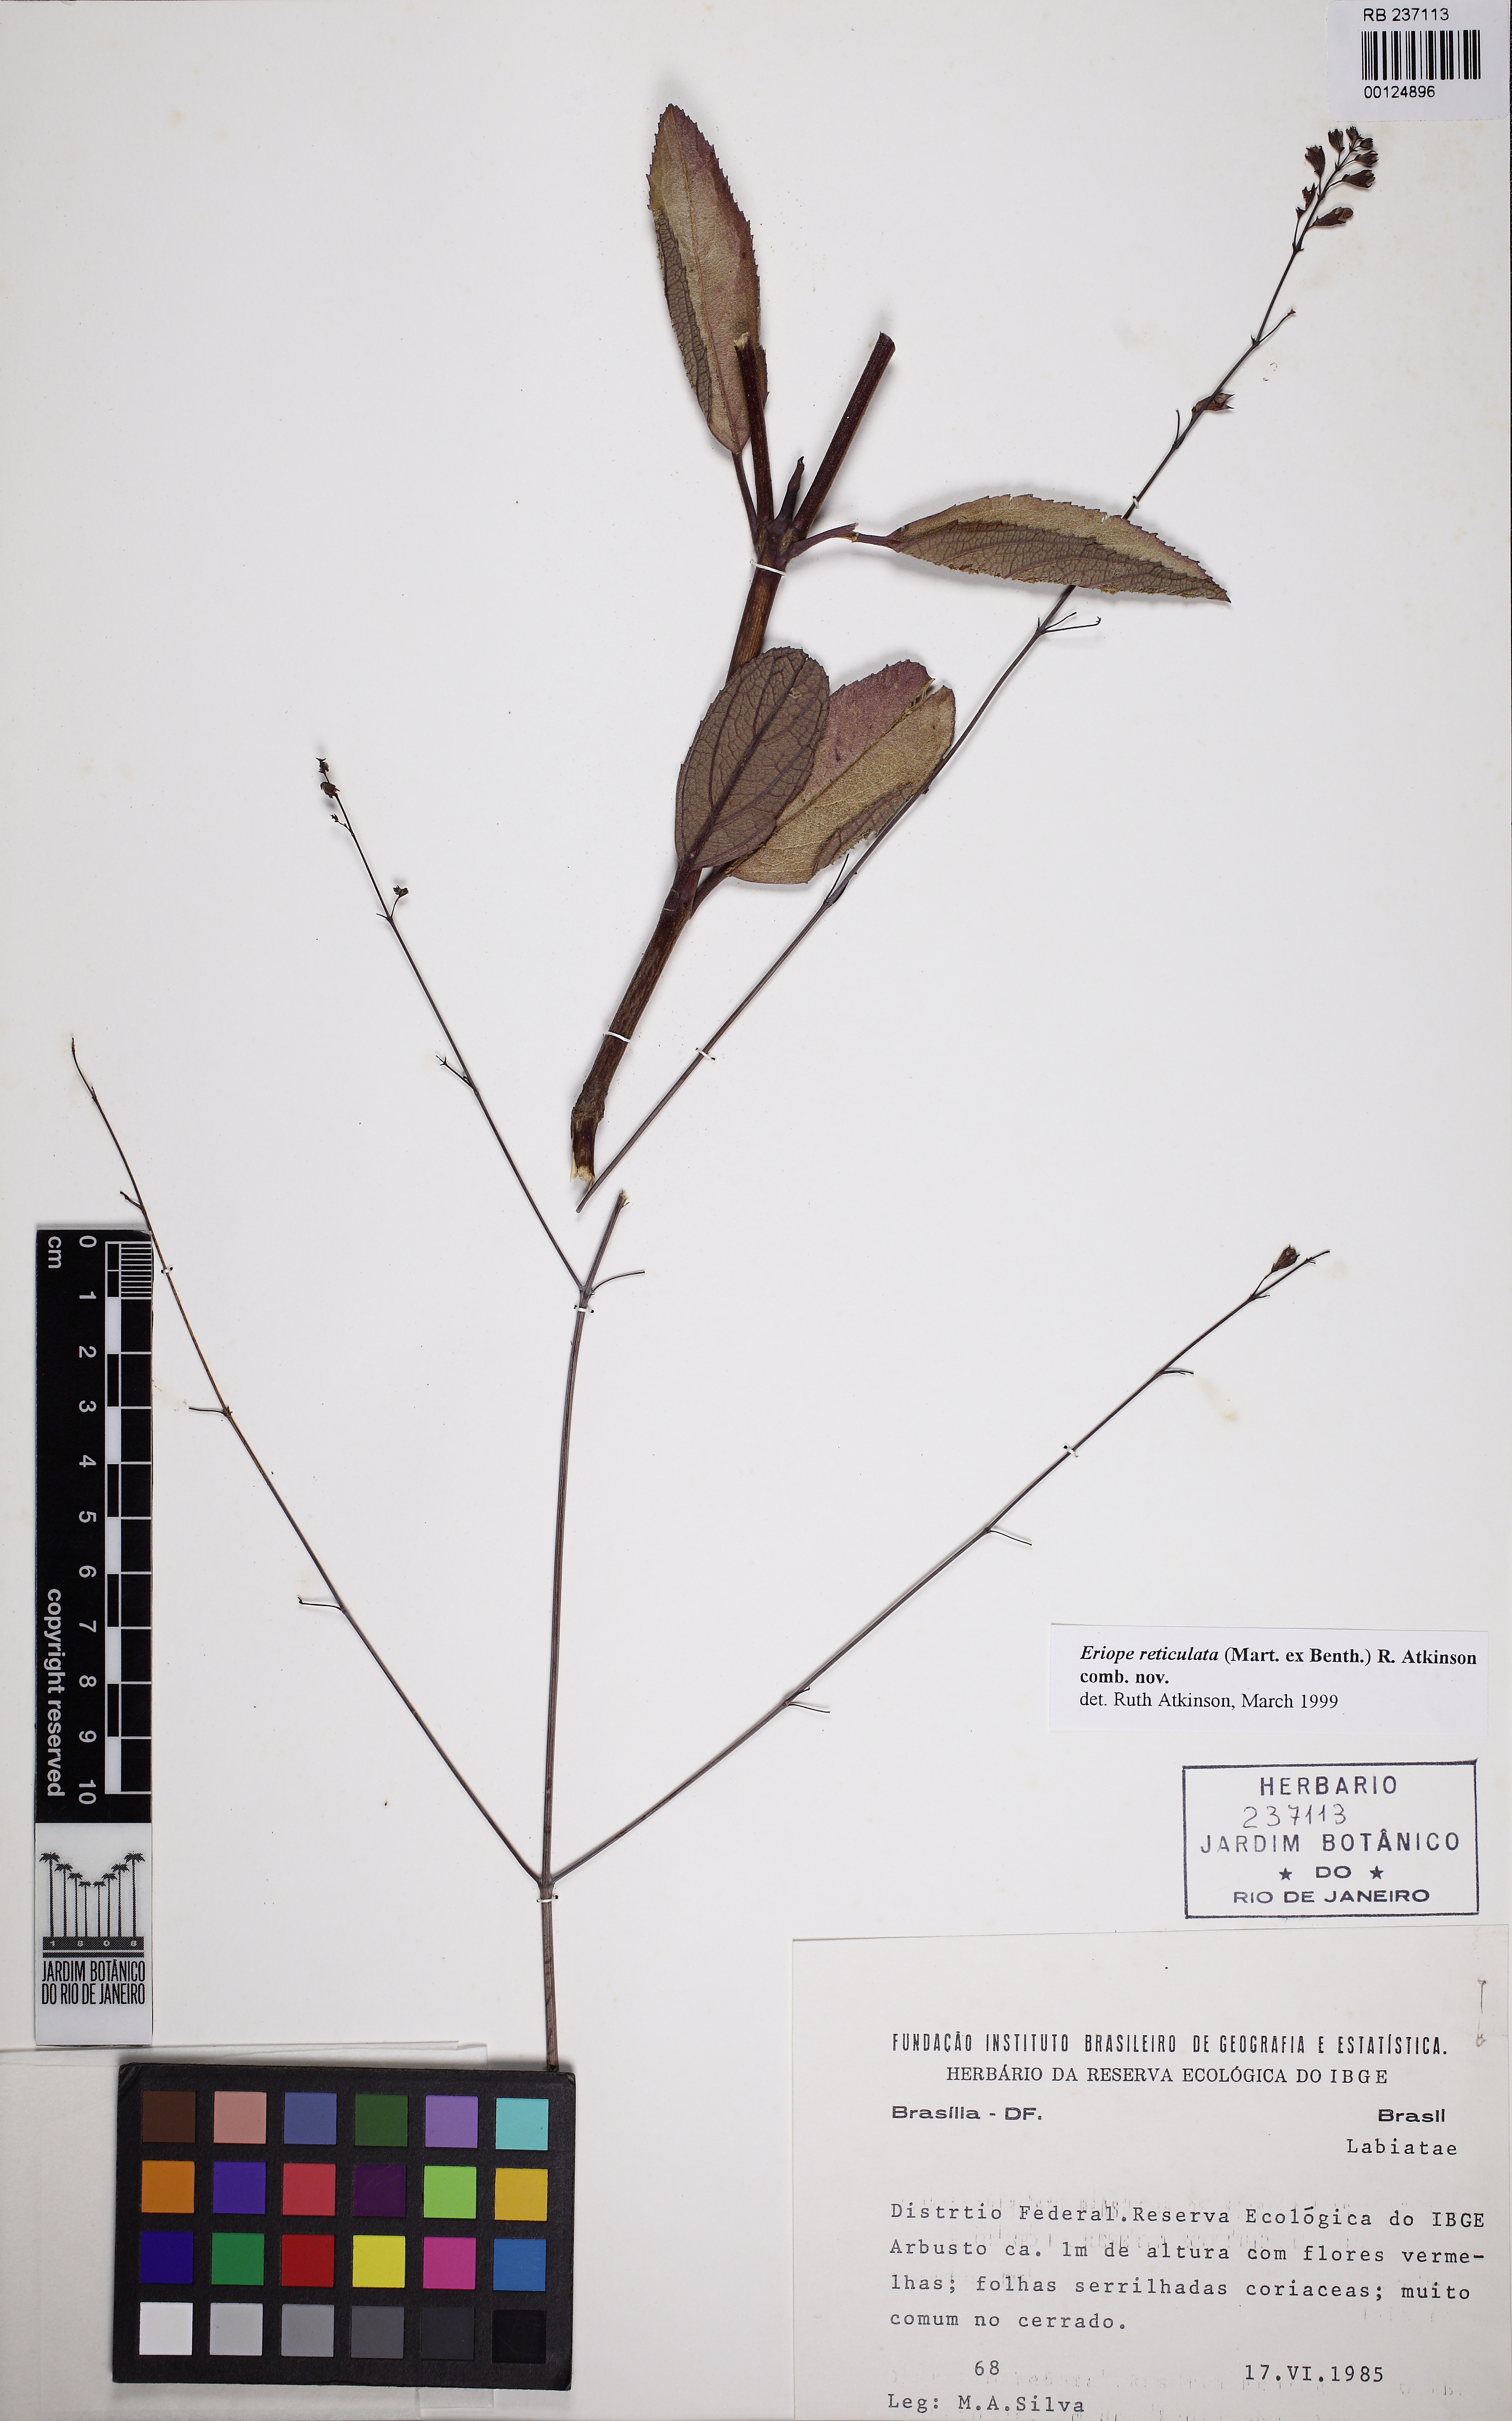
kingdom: Plantae
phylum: Tracheophyta
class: Magnoliopsida
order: Lamiales
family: Lamiaceae
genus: Eriope
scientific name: Eriope
